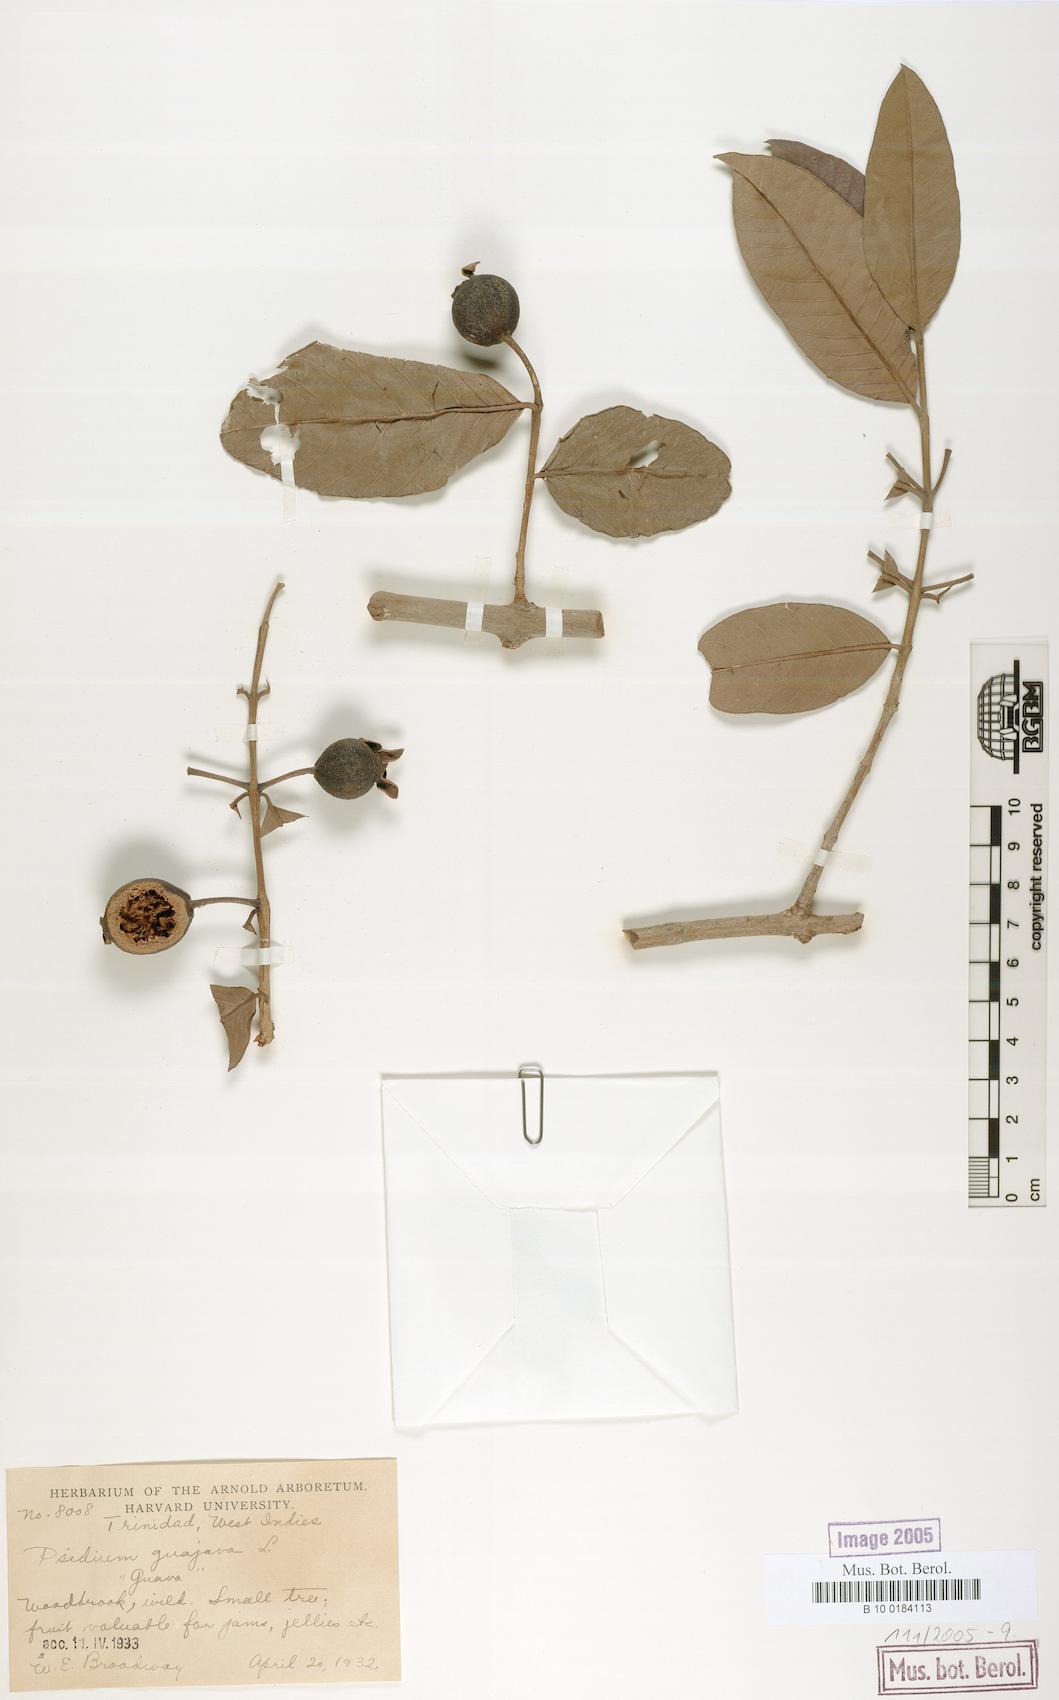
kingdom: Plantae
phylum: Tracheophyta
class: Magnoliopsida
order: Myrtales
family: Myrtaceae
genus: Psidium
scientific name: Psidium guajava
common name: Guava
